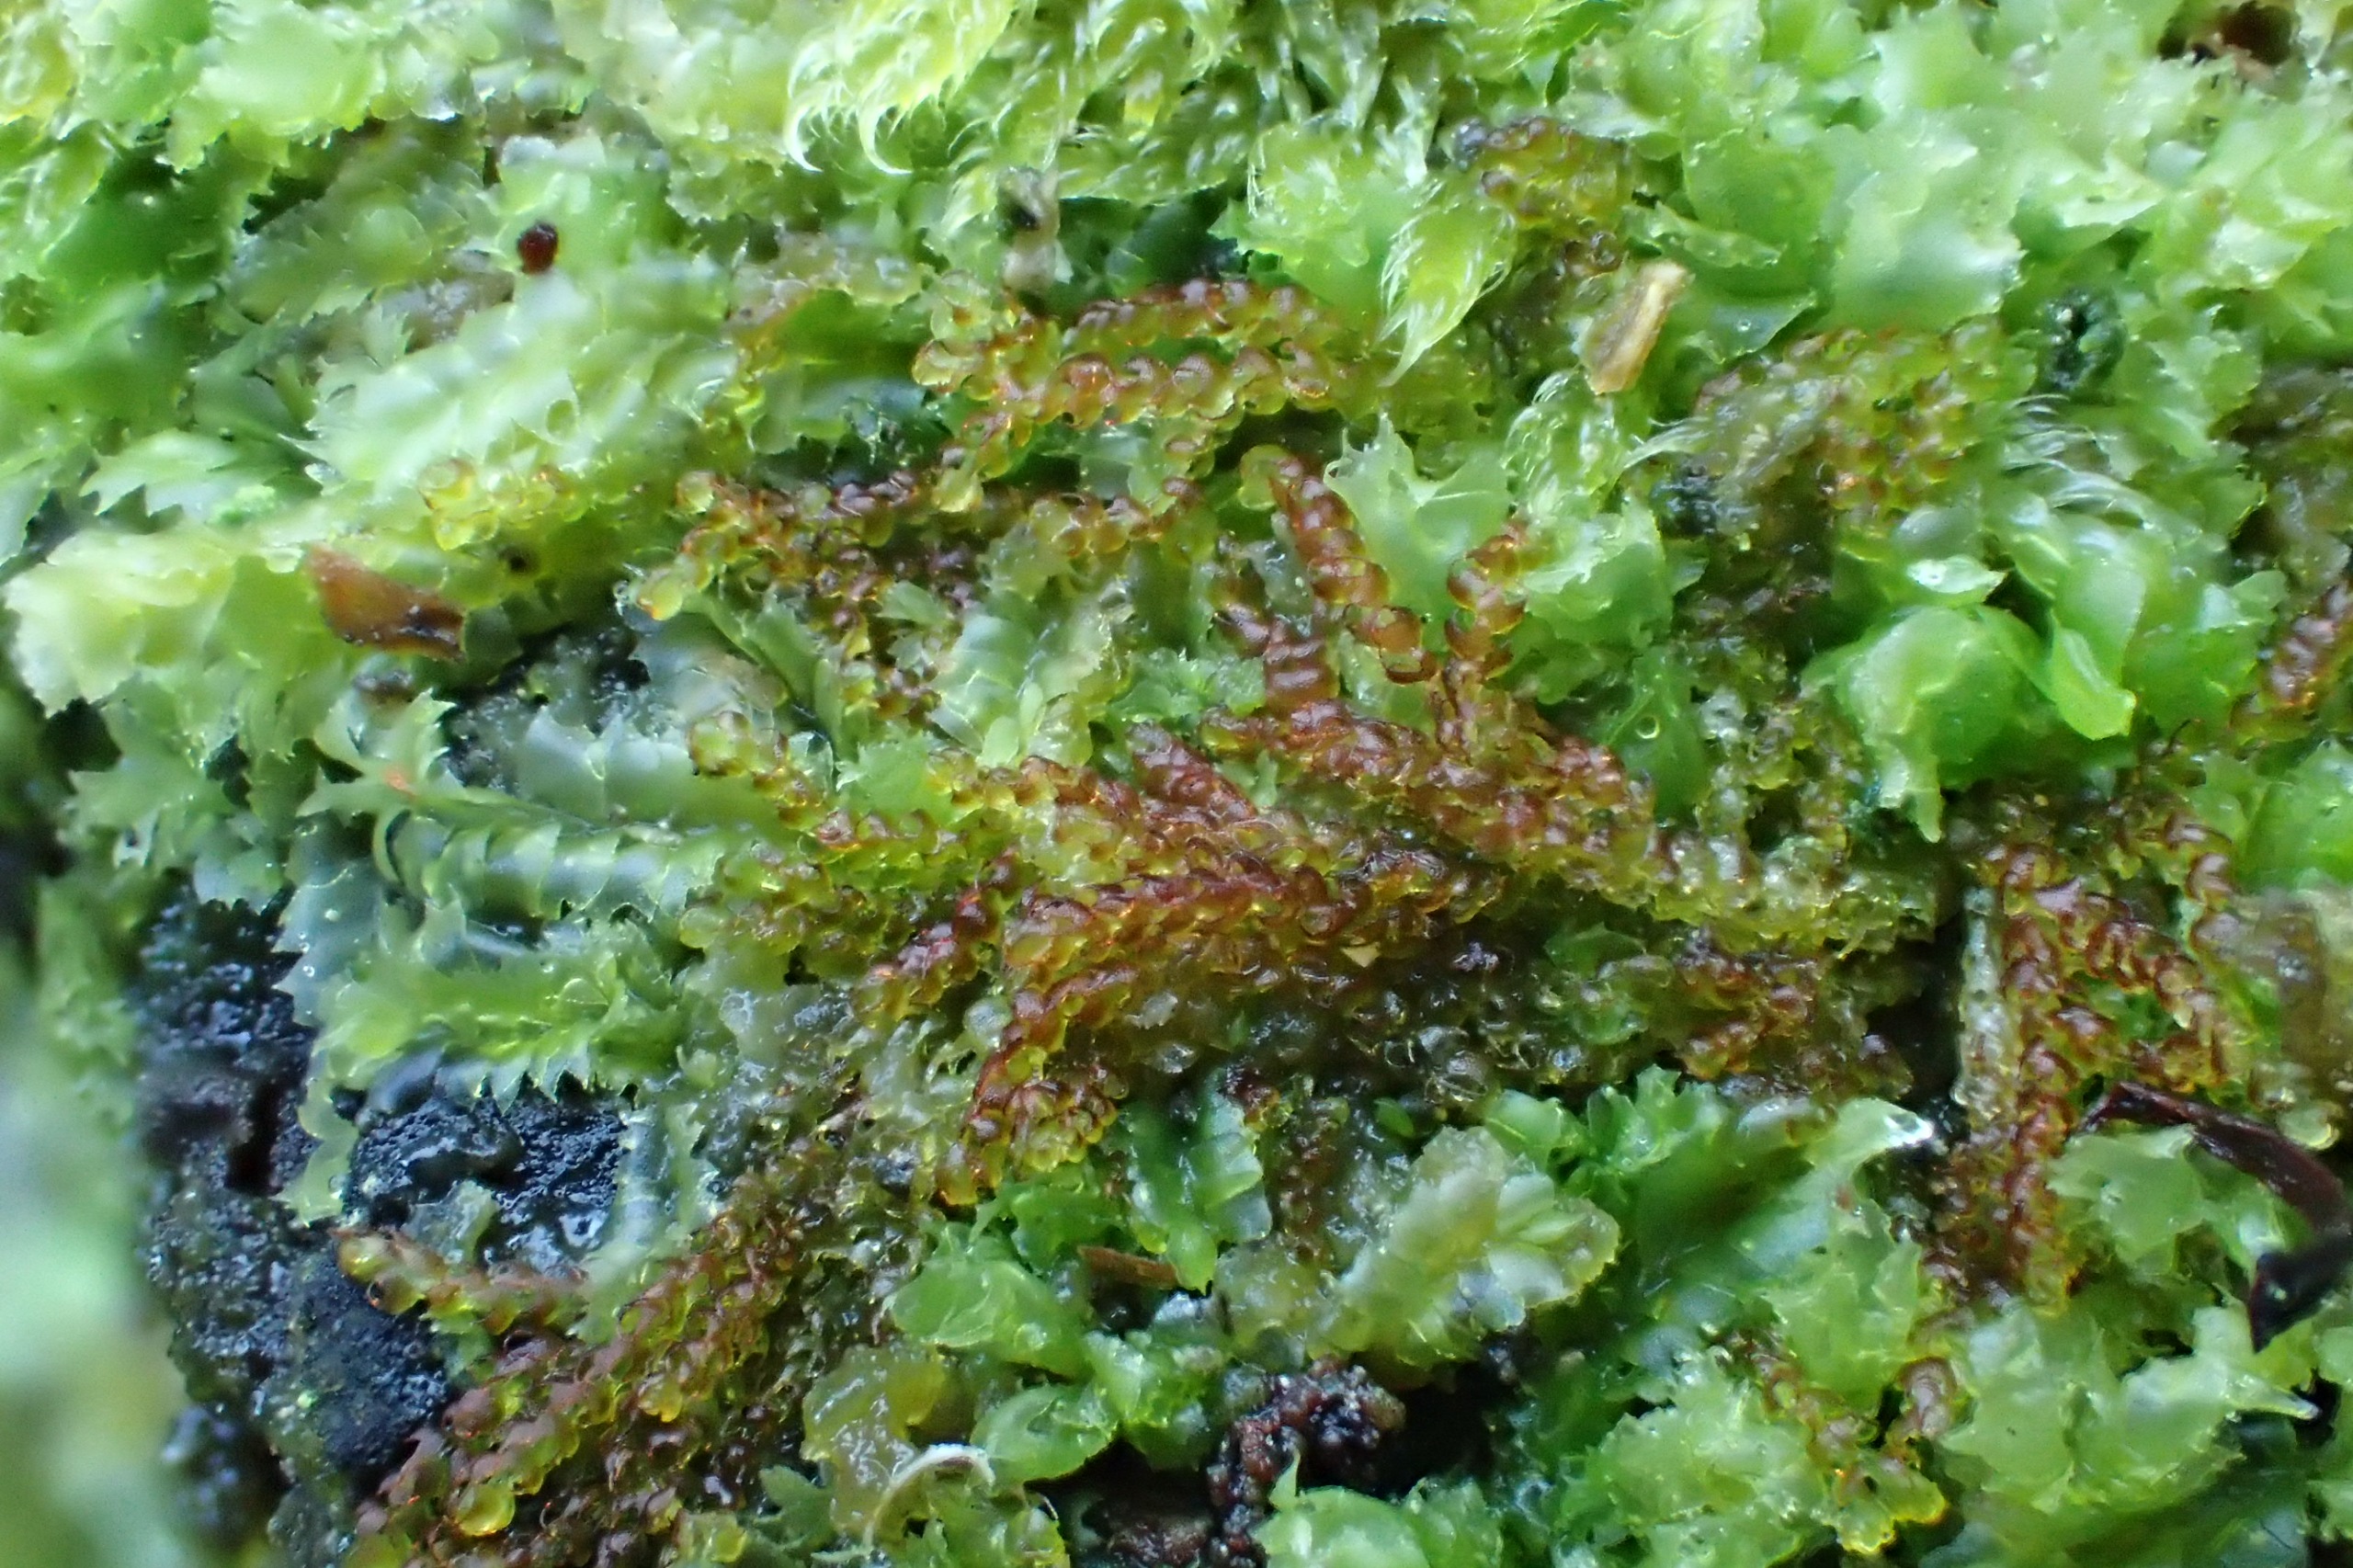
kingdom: Plantae
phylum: Marchantiophyta
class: Jungermanniopsida
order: Jungermanniales
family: Cephaloziaceae
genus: Nowellia
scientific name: Nowellia curvifolia
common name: Krumbladet stødmos
